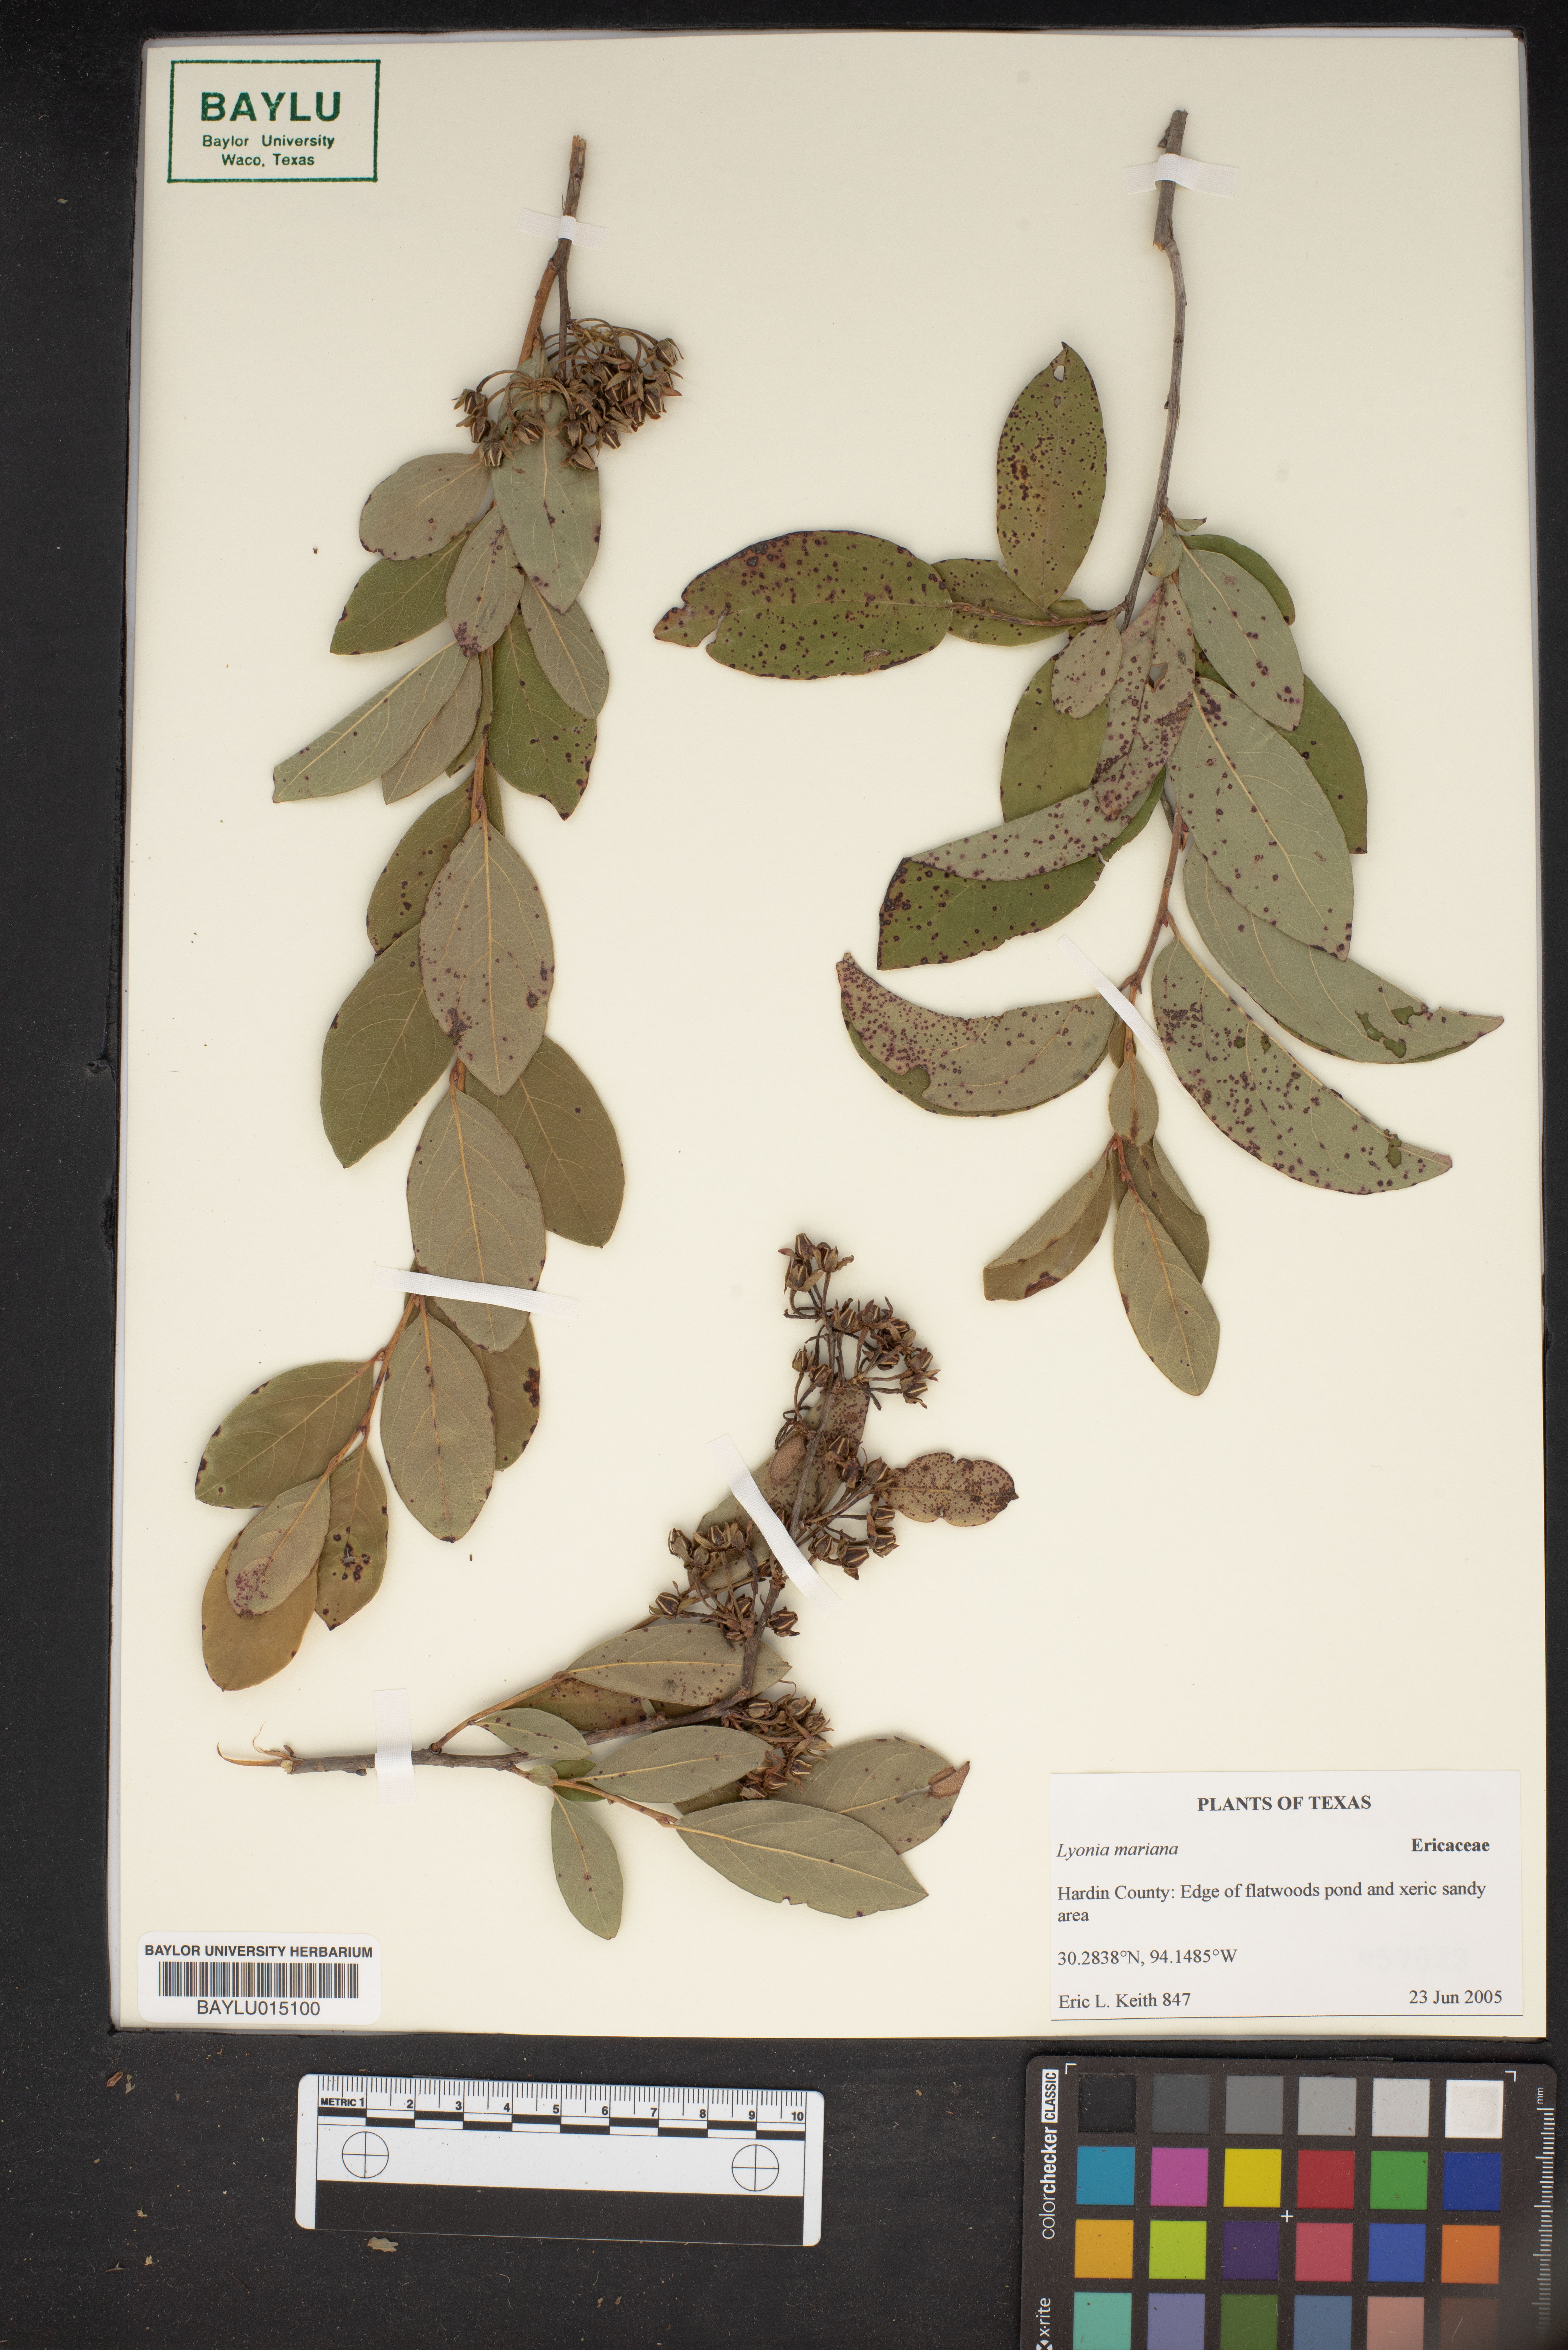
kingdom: Plantae
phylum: Tracheophyta
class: Magnoliopsida
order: Ericales
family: Ericaceae
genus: Lyonia
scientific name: Lyonia mariana
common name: Staggerbush
